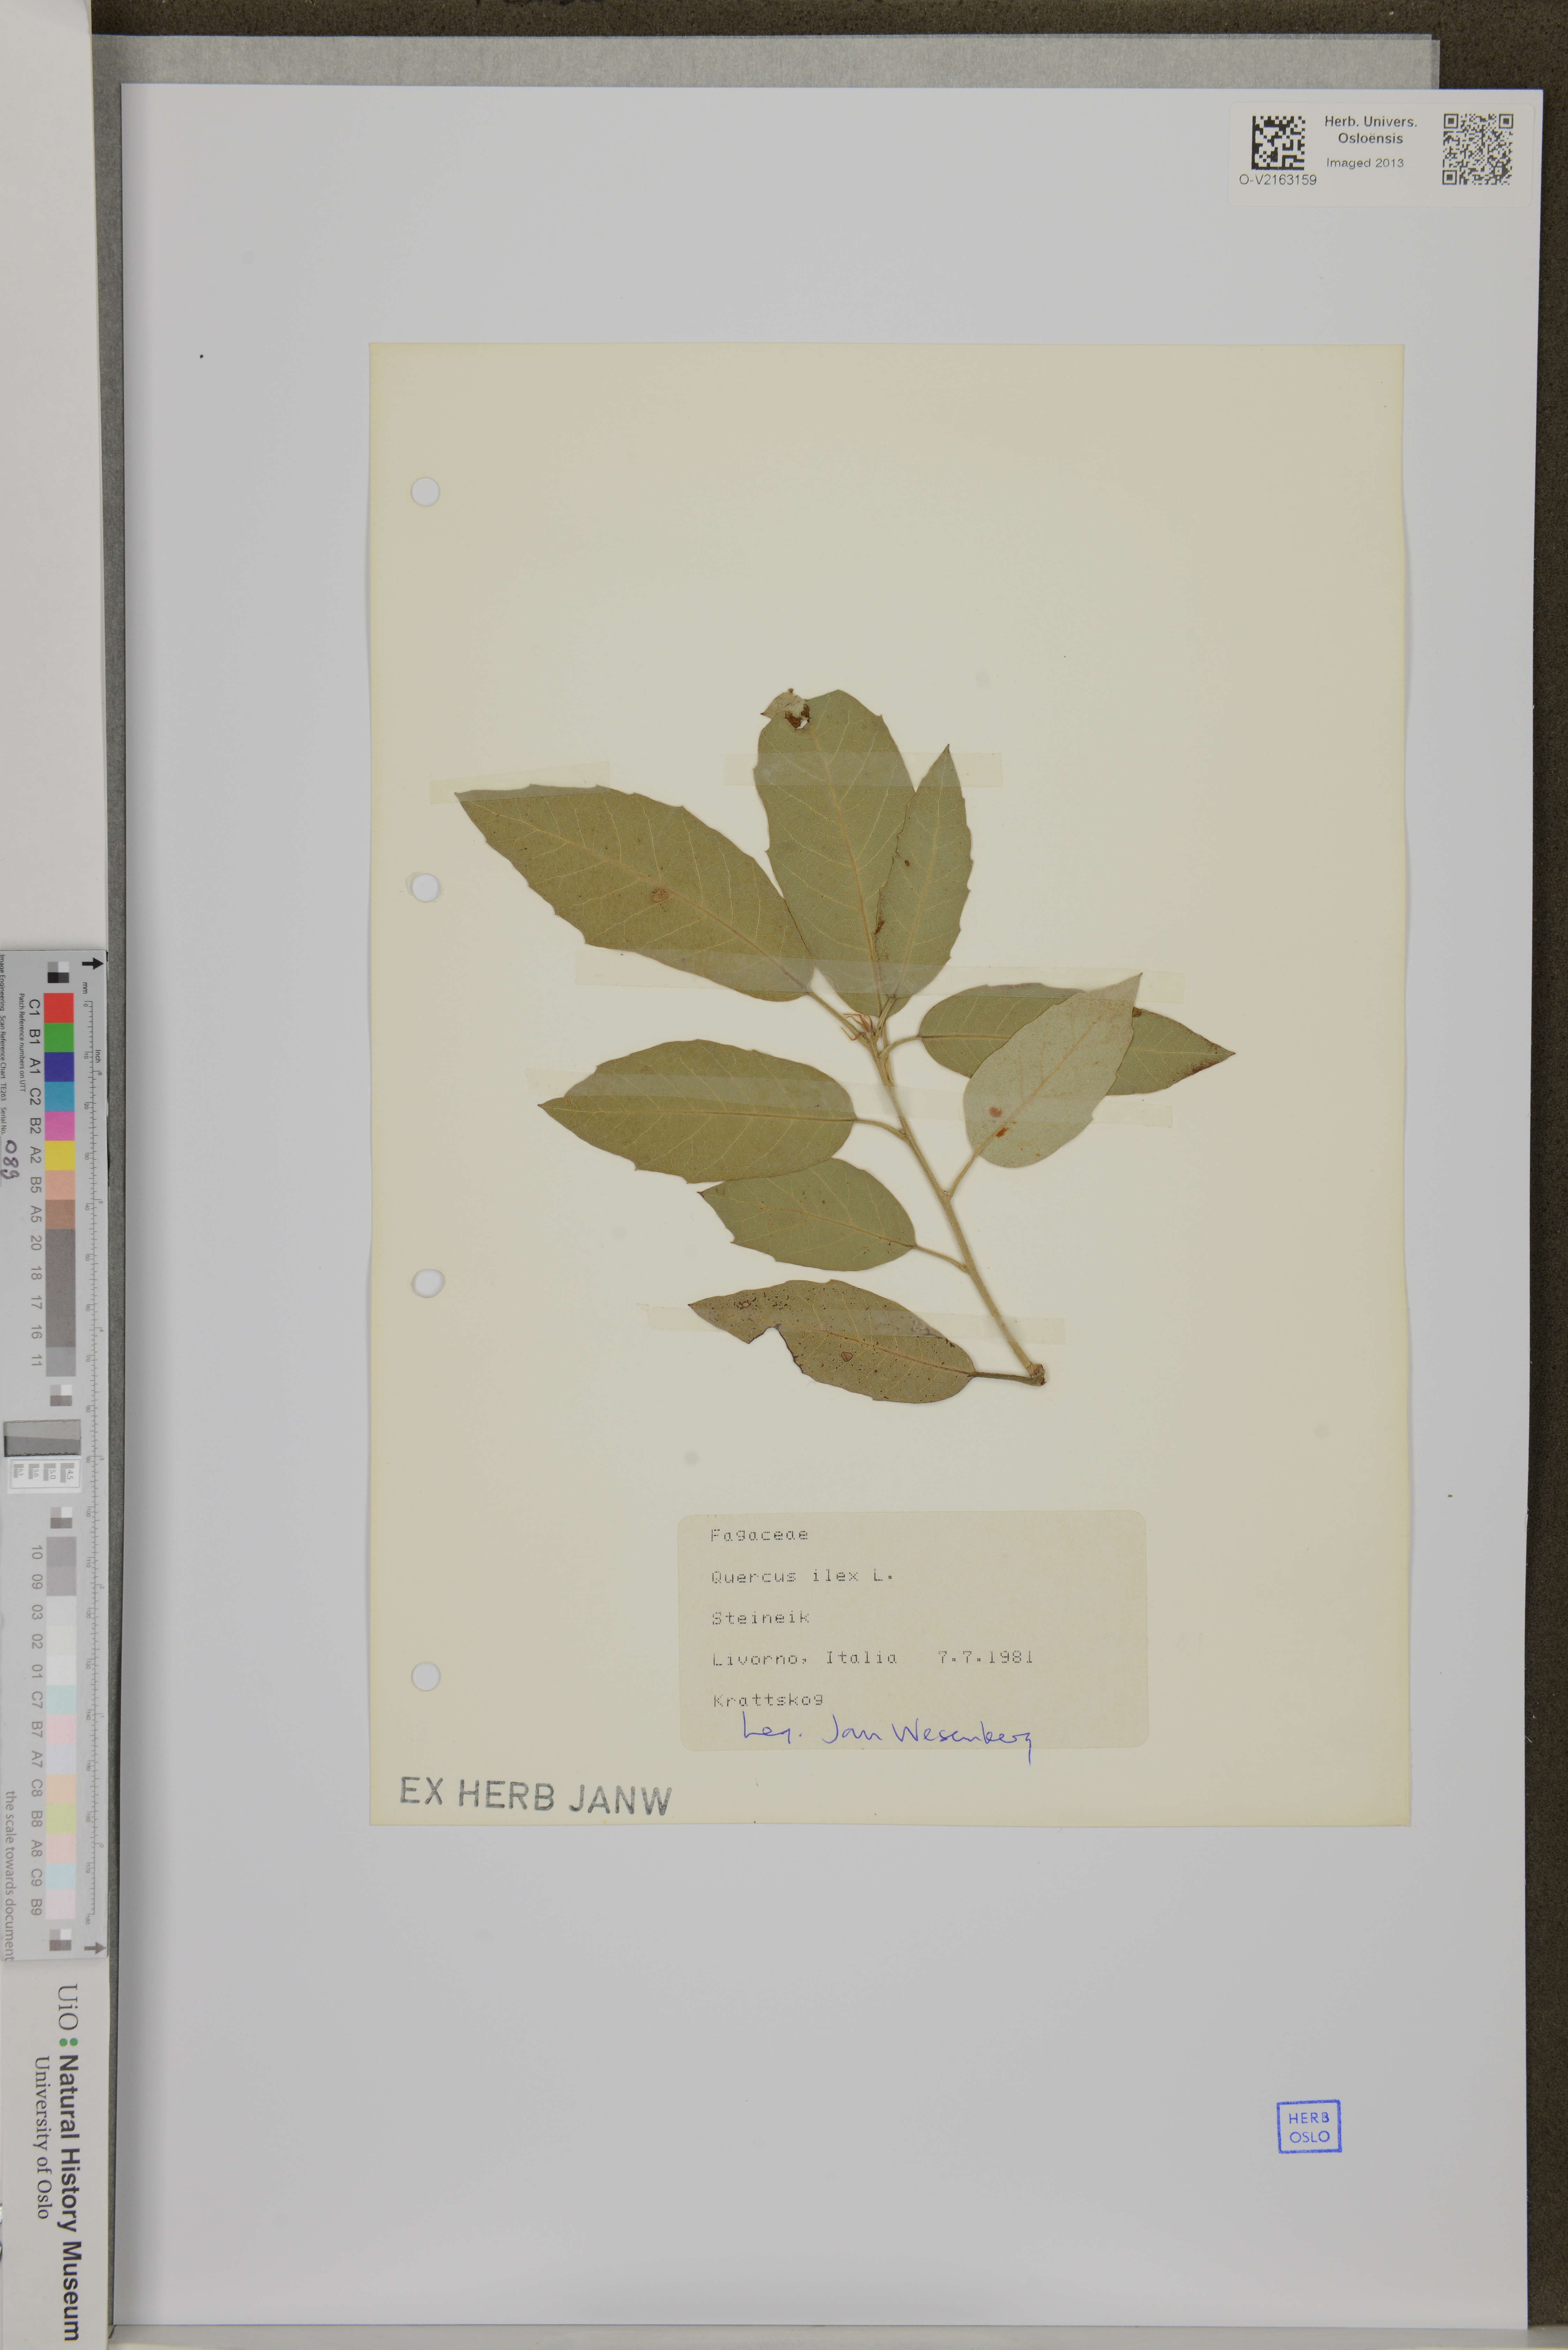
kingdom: Plantae
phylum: Tracheophyta
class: Magnoliopsida
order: Fagales
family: Fagaceae
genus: Quercus
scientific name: Quercus ilex
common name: Evergreen oak
